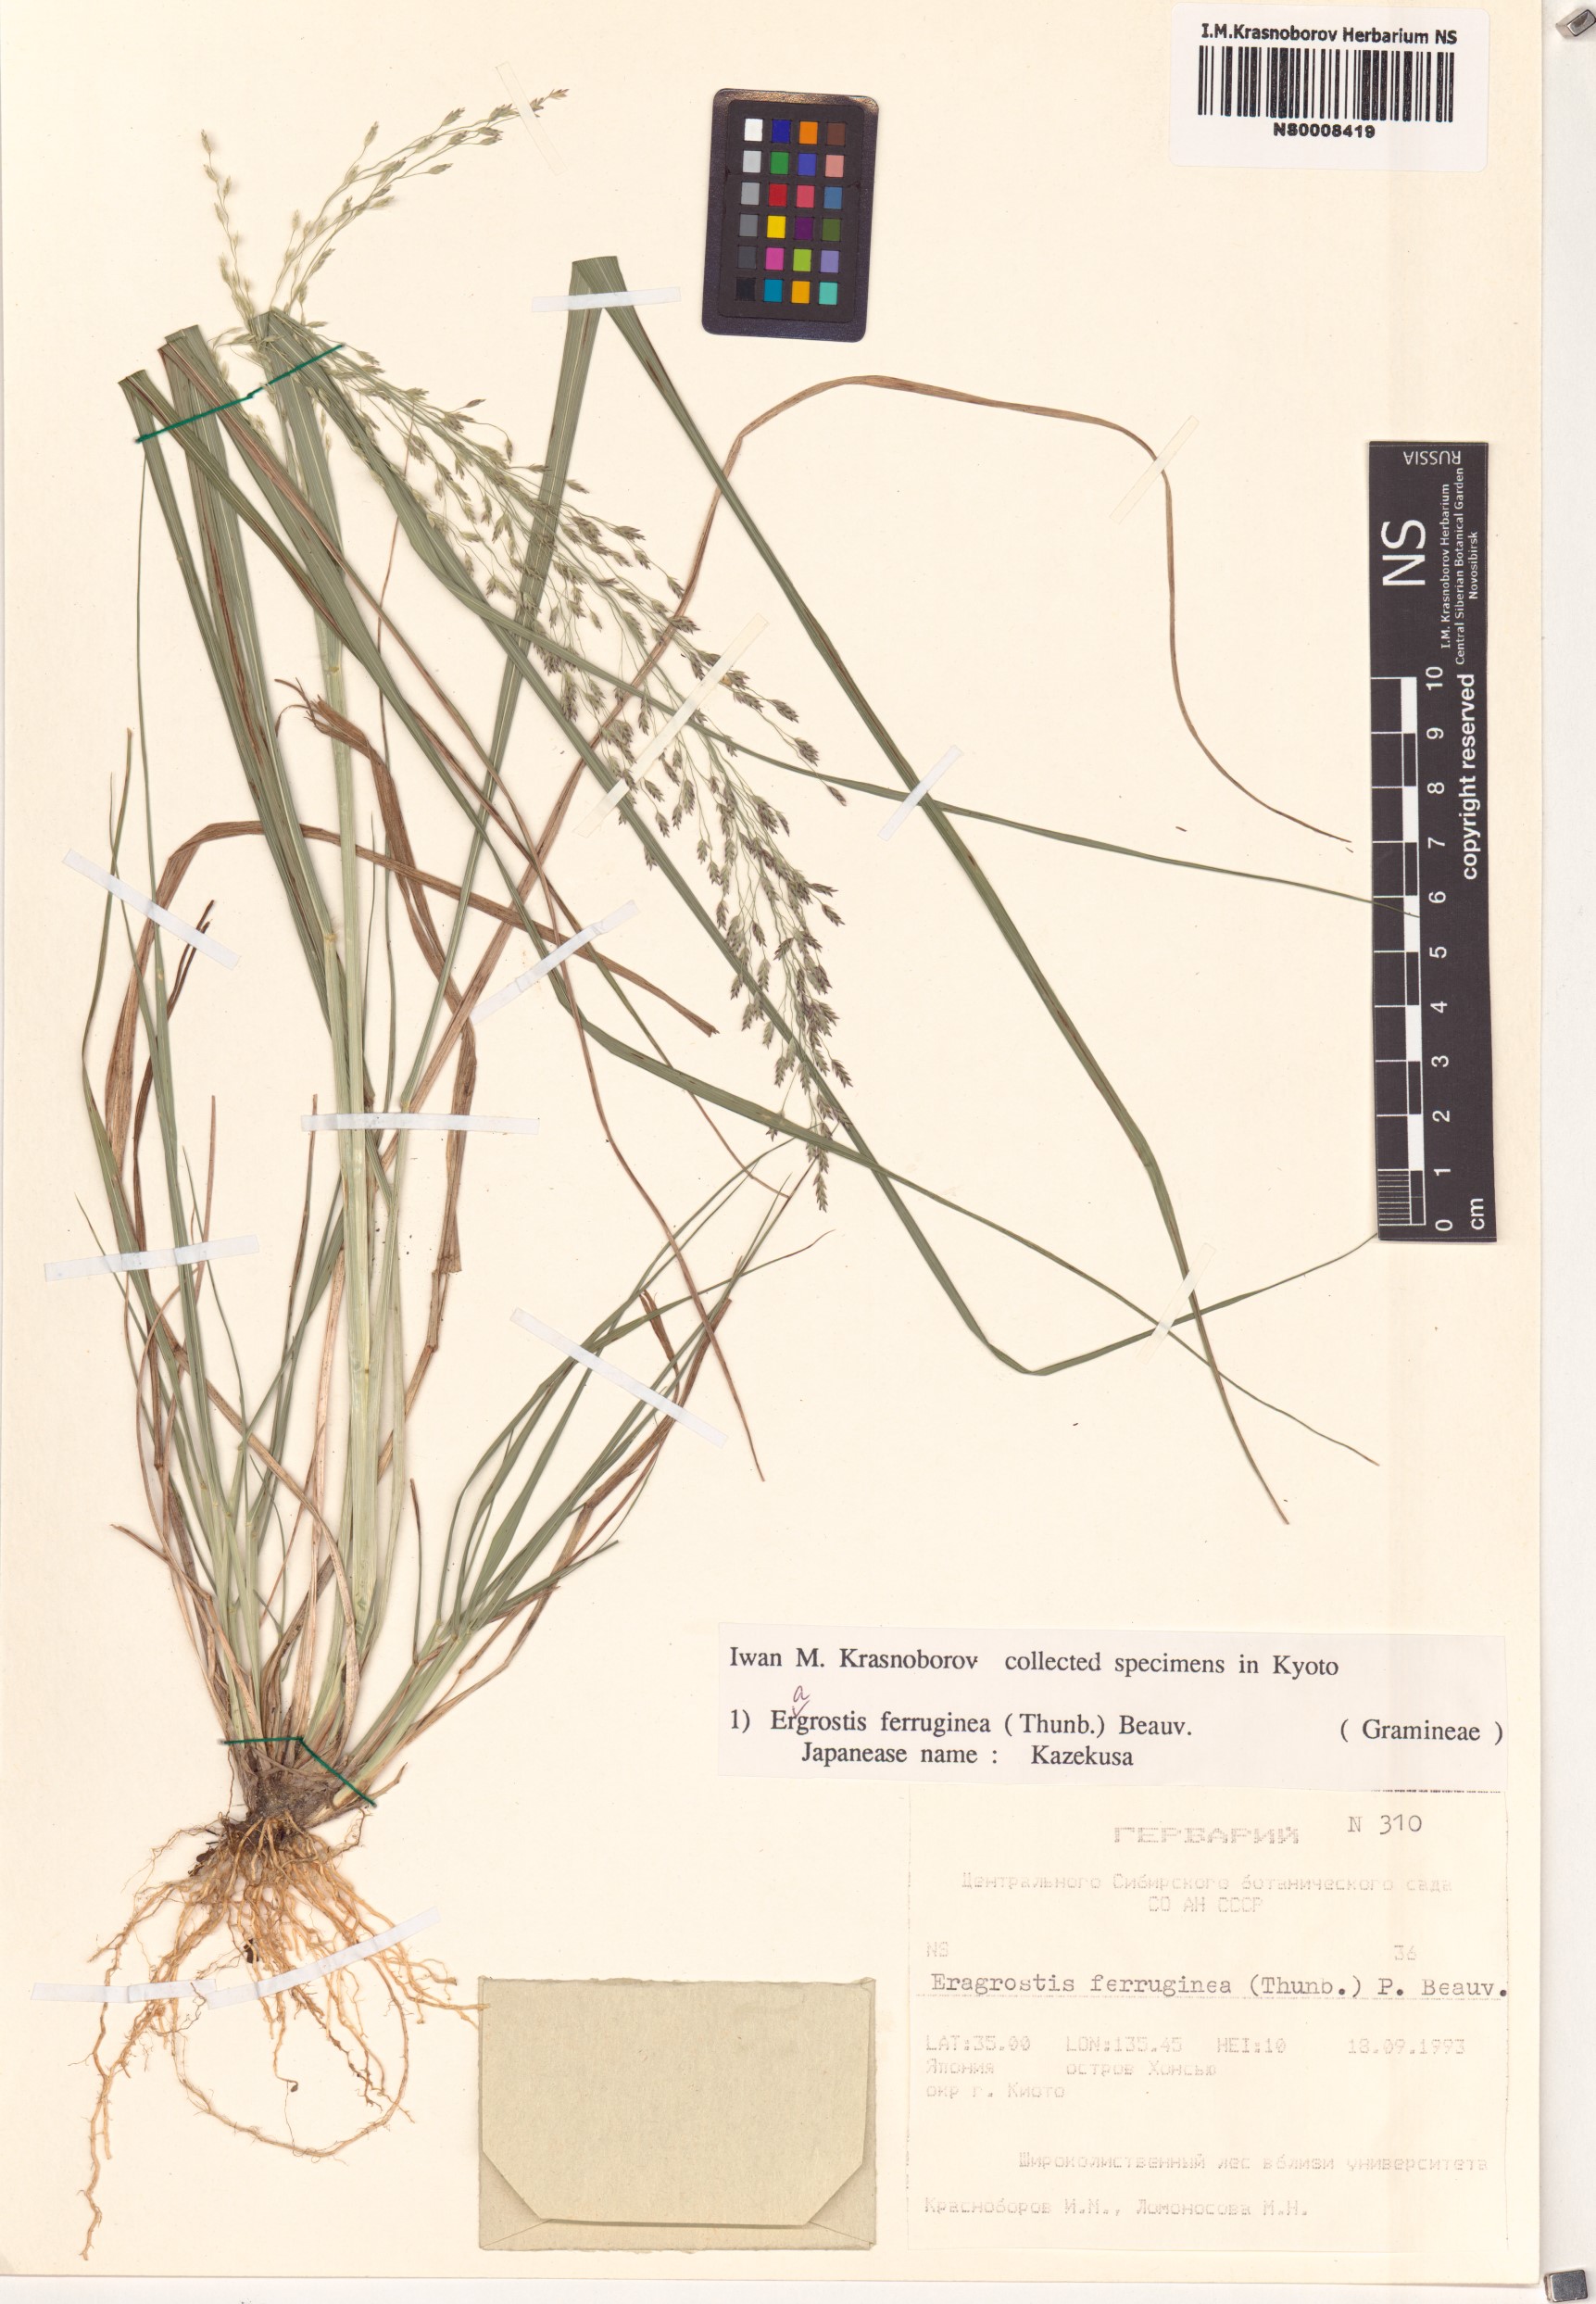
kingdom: Plantae
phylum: Tracheophyta
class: Liliopsida
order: Poales
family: Poaceae
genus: Eragrostis
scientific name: Eragrostis ferruginea
